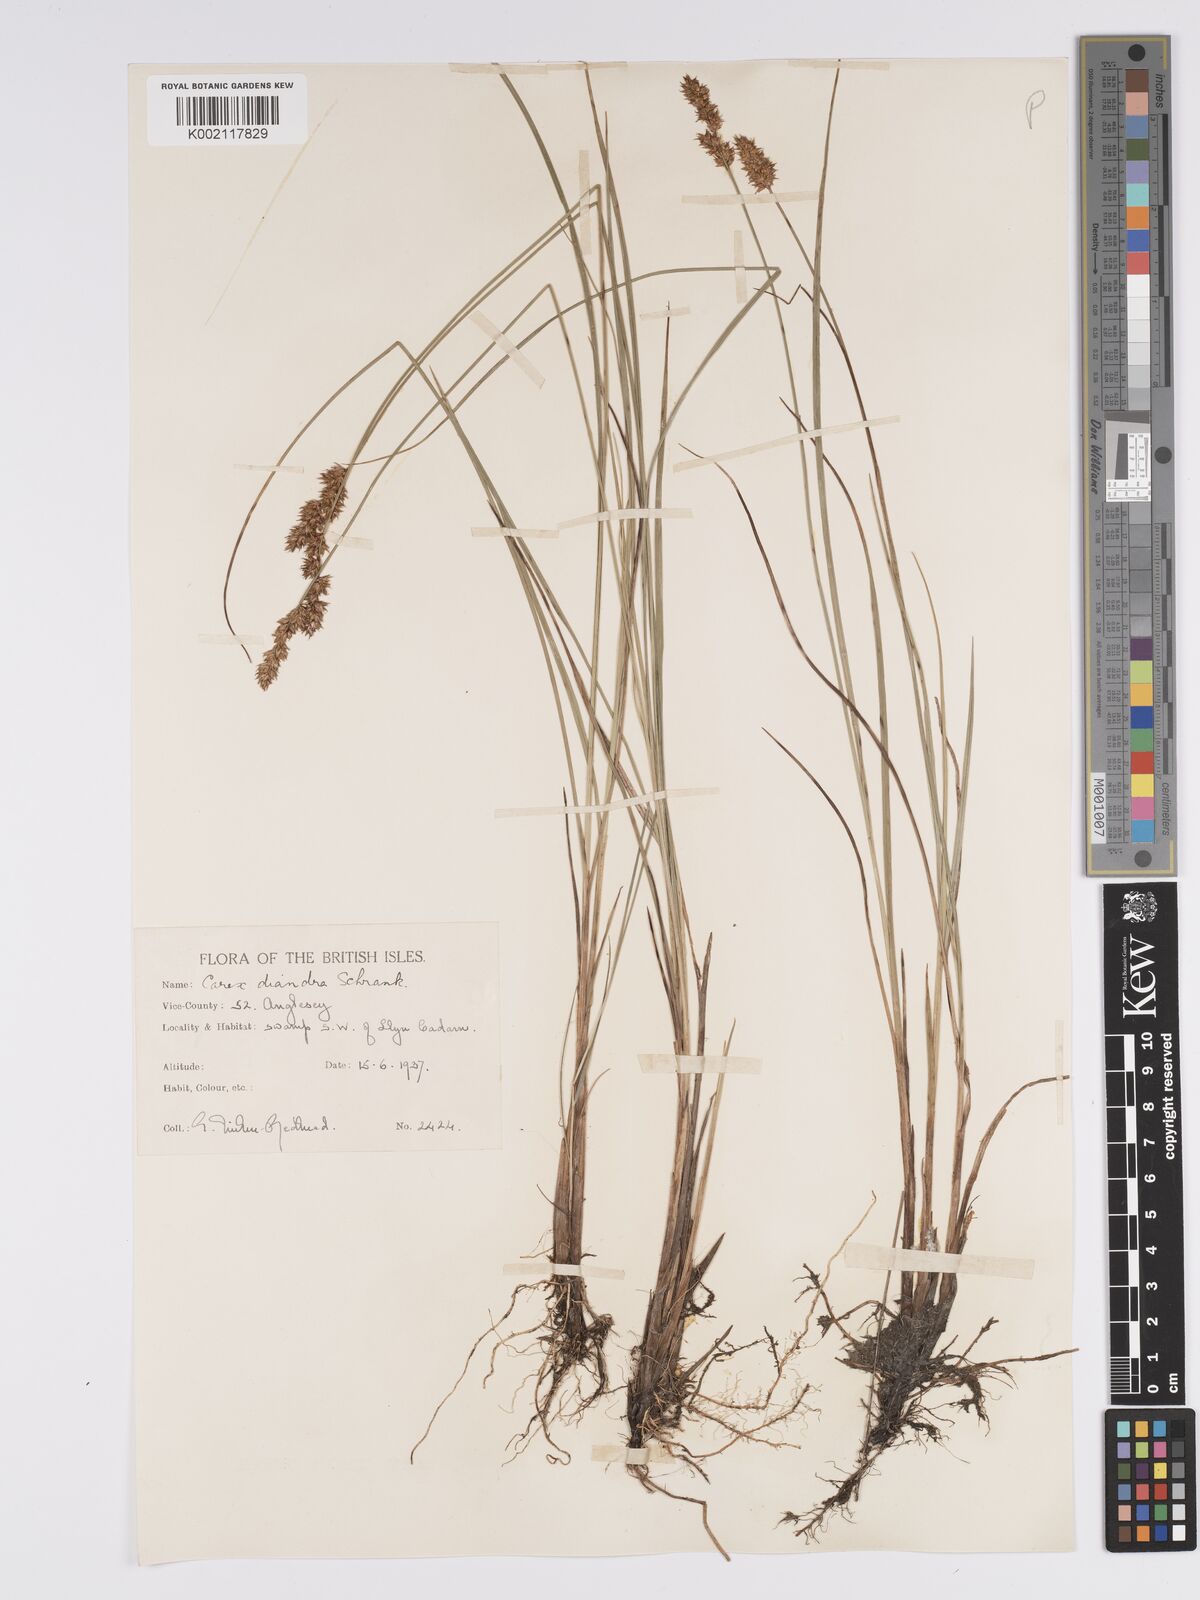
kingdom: Plantae
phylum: Tracheophyta
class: Liliopsida
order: Poales
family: Cyperaceae
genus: Carex
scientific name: Carex diandra
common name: Lesser tussock-sedge
